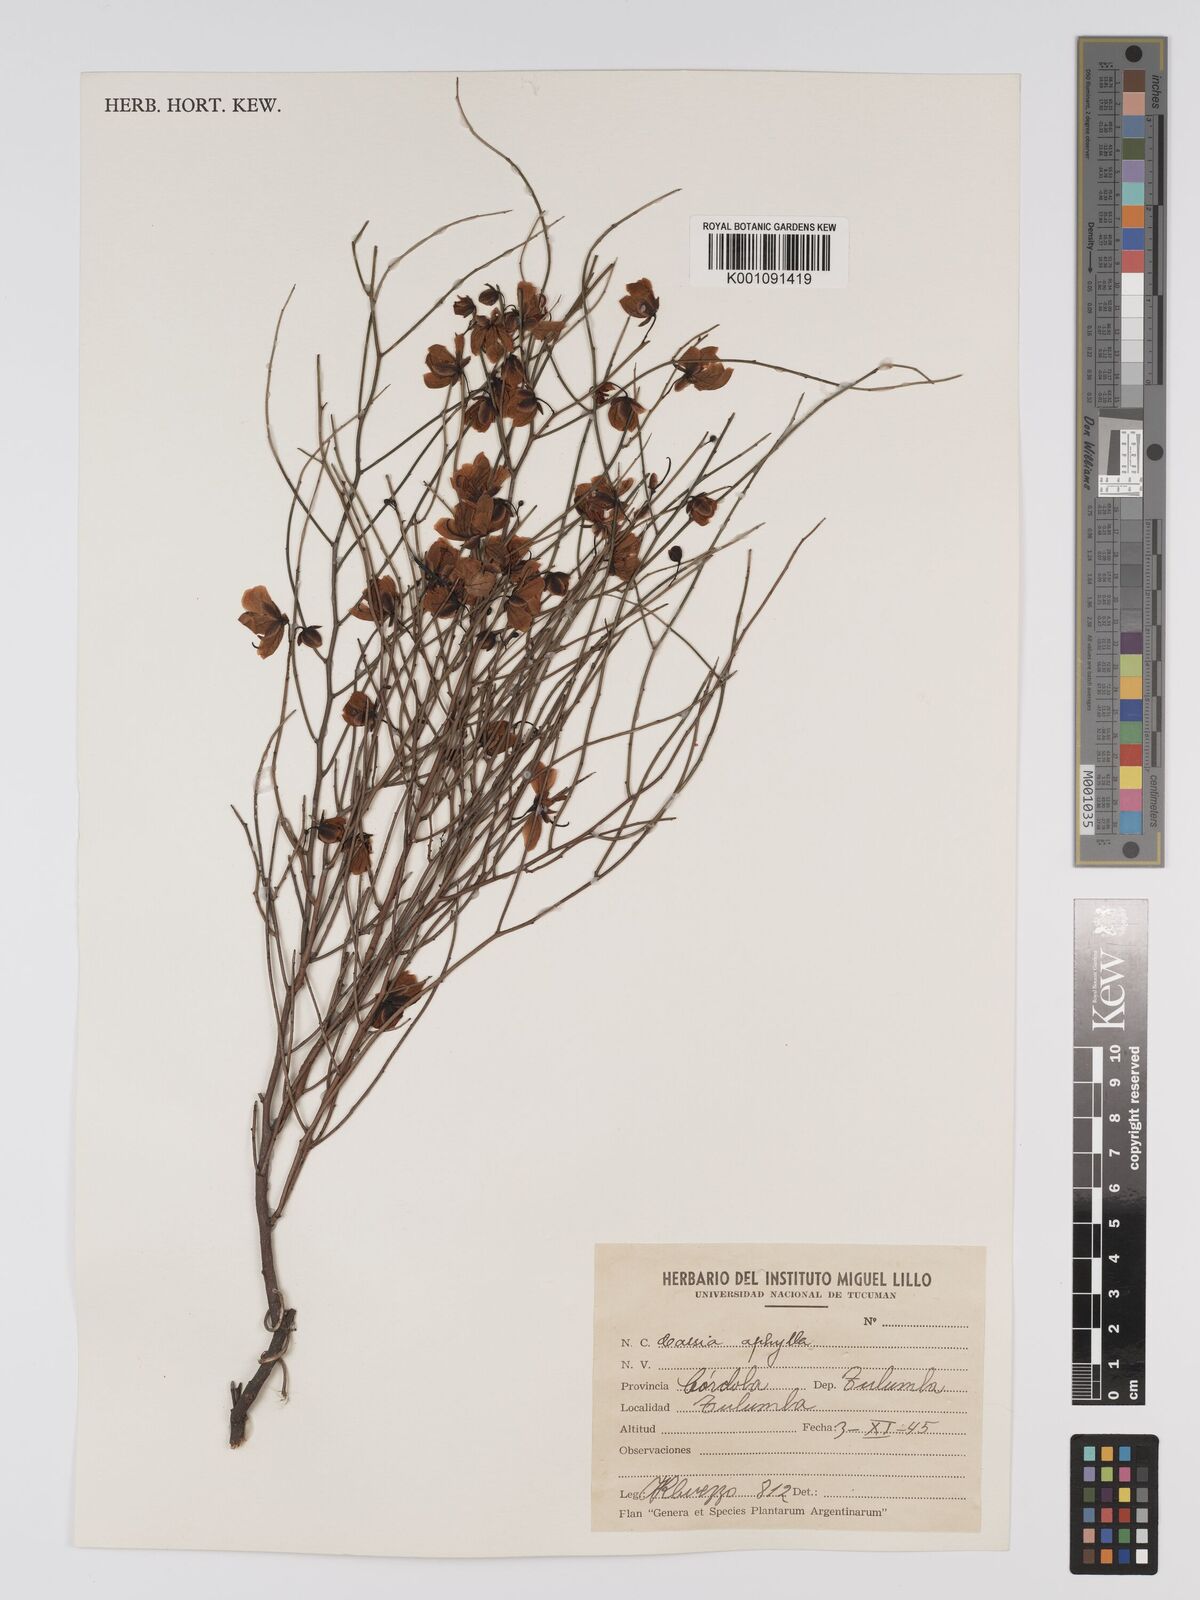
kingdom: Plantae
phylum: Tracheophyta
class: Magnoliopsida
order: Fabales
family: Fabaceae
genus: Senna
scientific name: Senna aphylla
